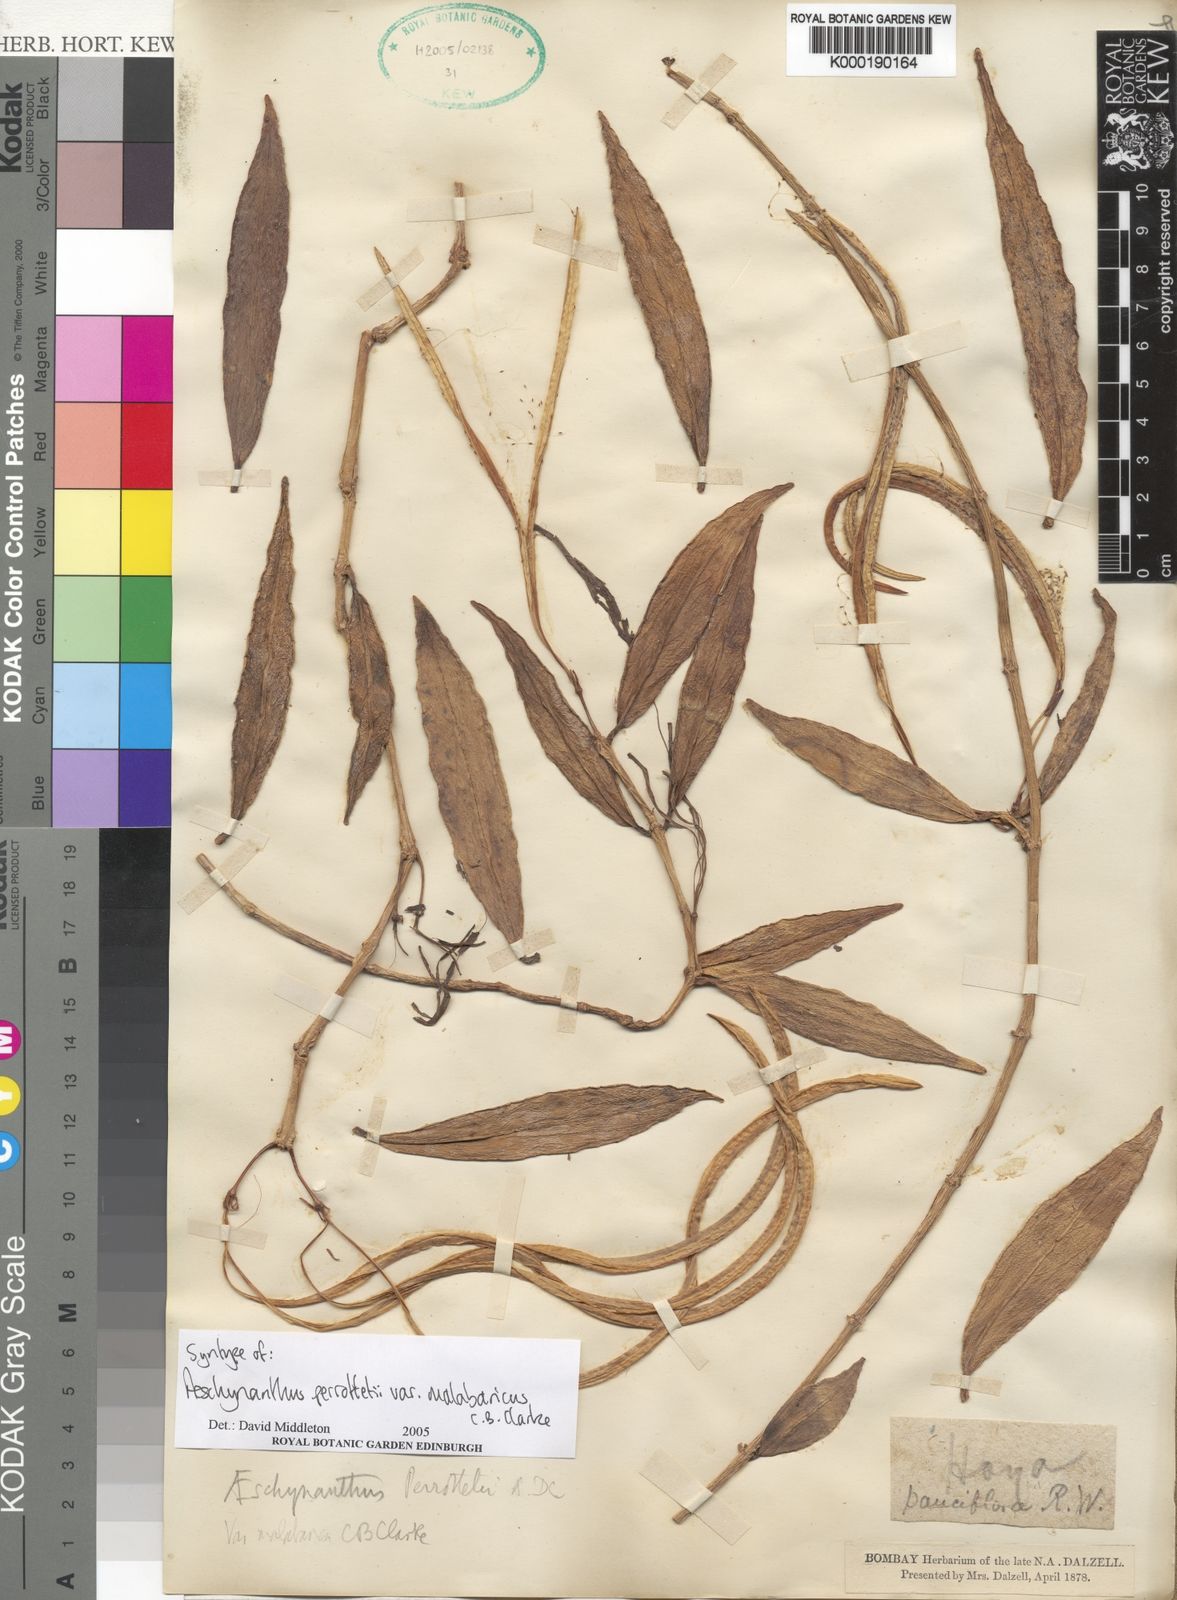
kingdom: Plantae
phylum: Tracheophyta
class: Magnoliopsida
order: Lamiales
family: Gesneriaceae
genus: Aeschynanthus
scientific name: Aeschynanthus perrottetii
